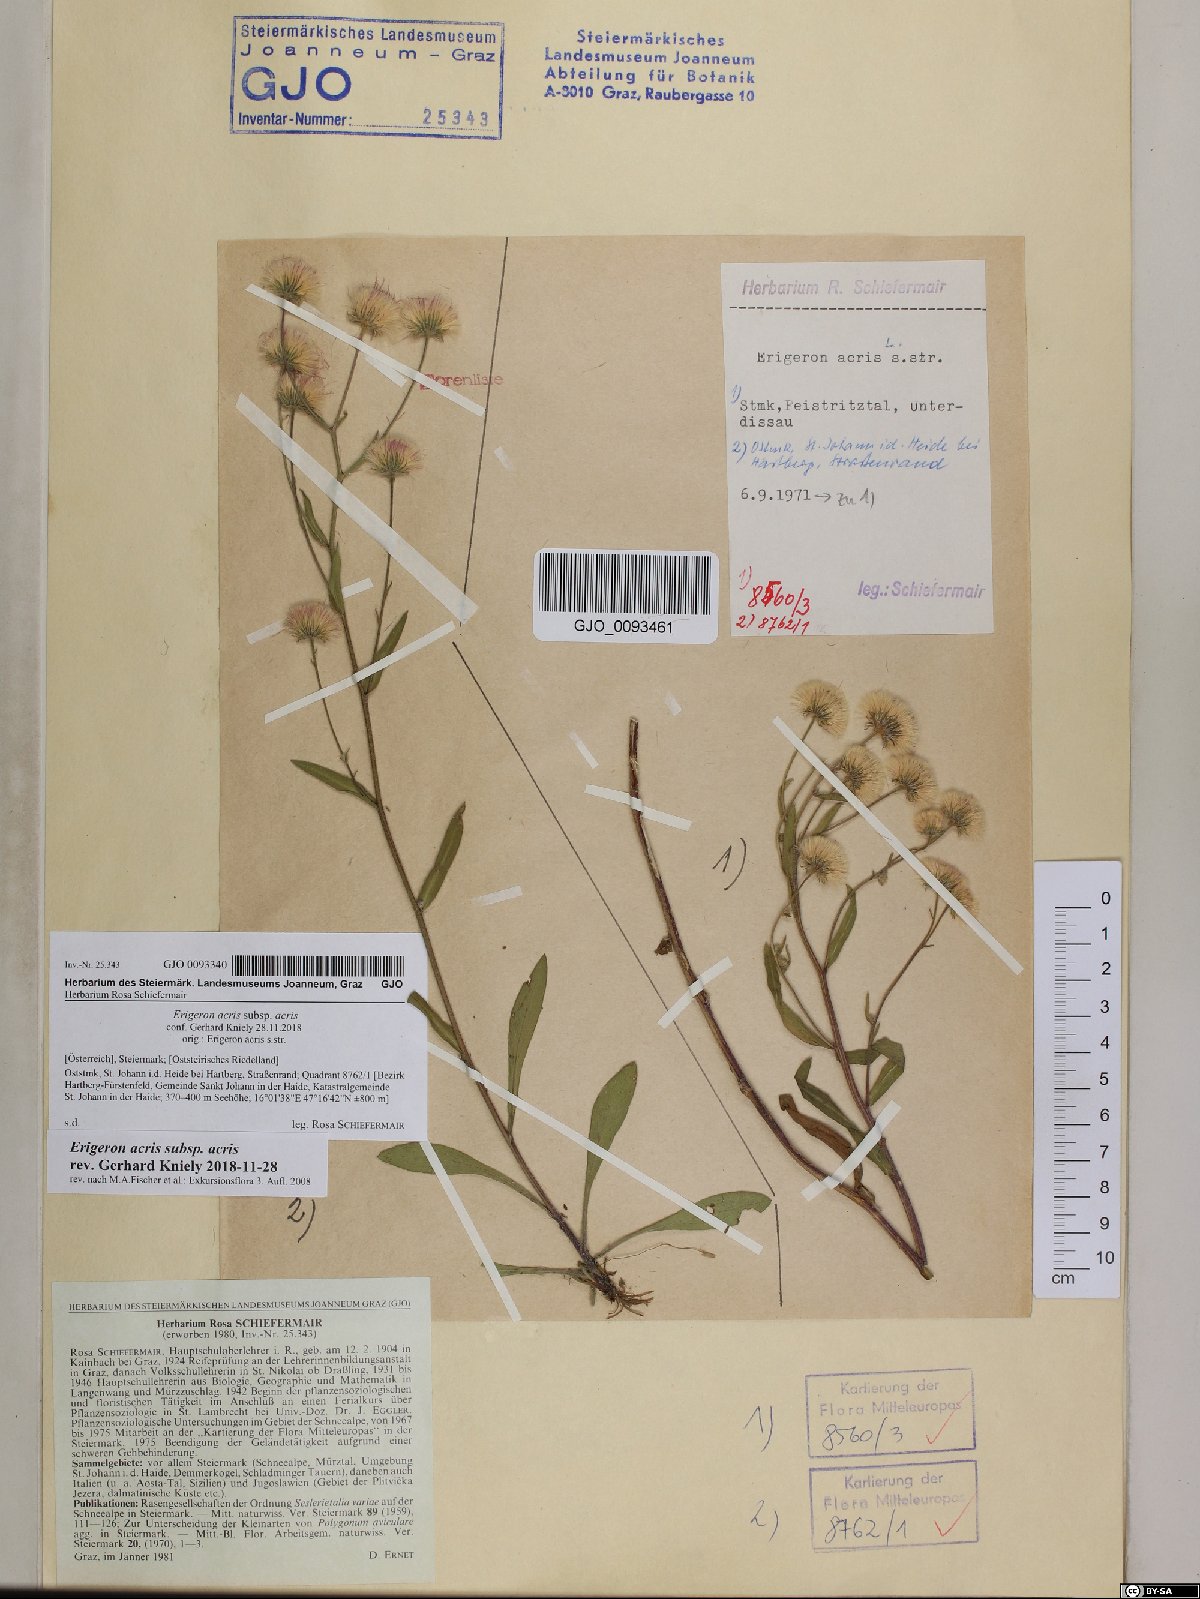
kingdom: Plantae
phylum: Tracheophyta
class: Magnoliopsida
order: Asterales
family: Asteraceae
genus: Erigeron
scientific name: Erigeron acris
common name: Blue fleabane
